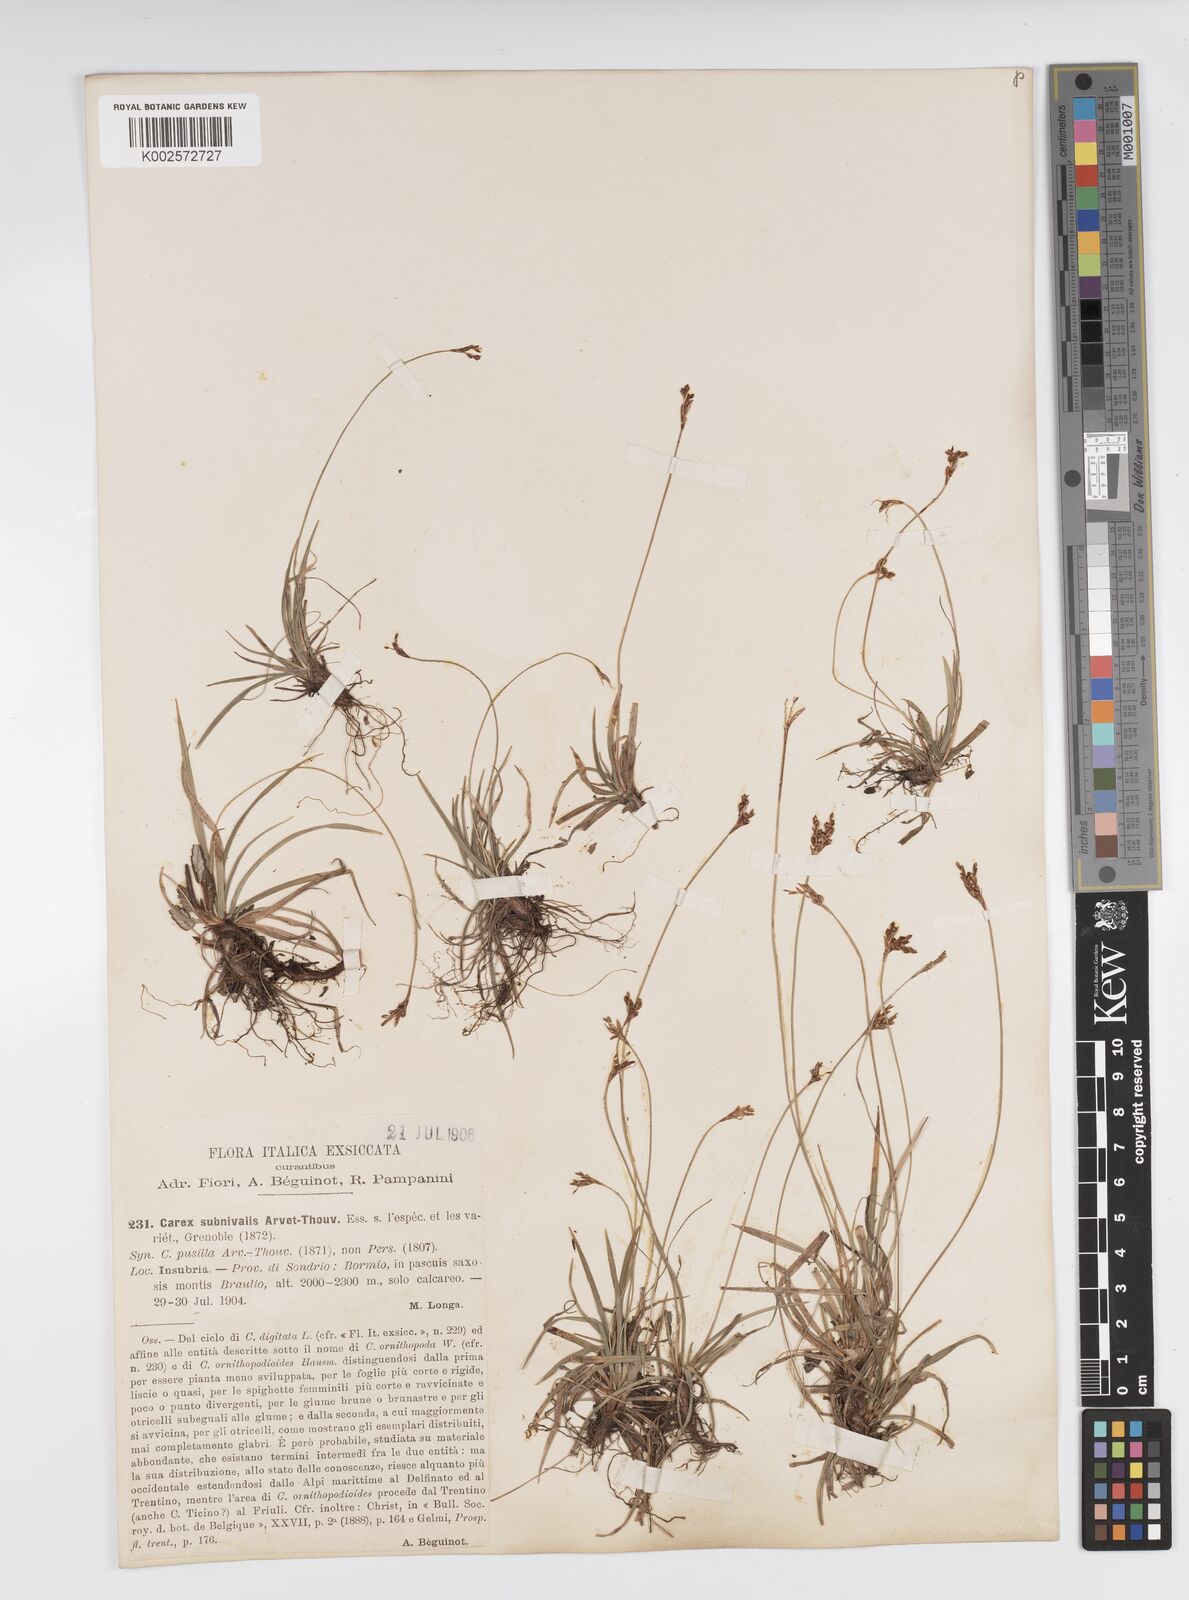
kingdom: Plantae
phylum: Tracheophyta
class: Liliopsida
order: Poales
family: Cyperaceae
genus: Carex
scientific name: Carex ornithopoda
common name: Bird's-foot sedge
